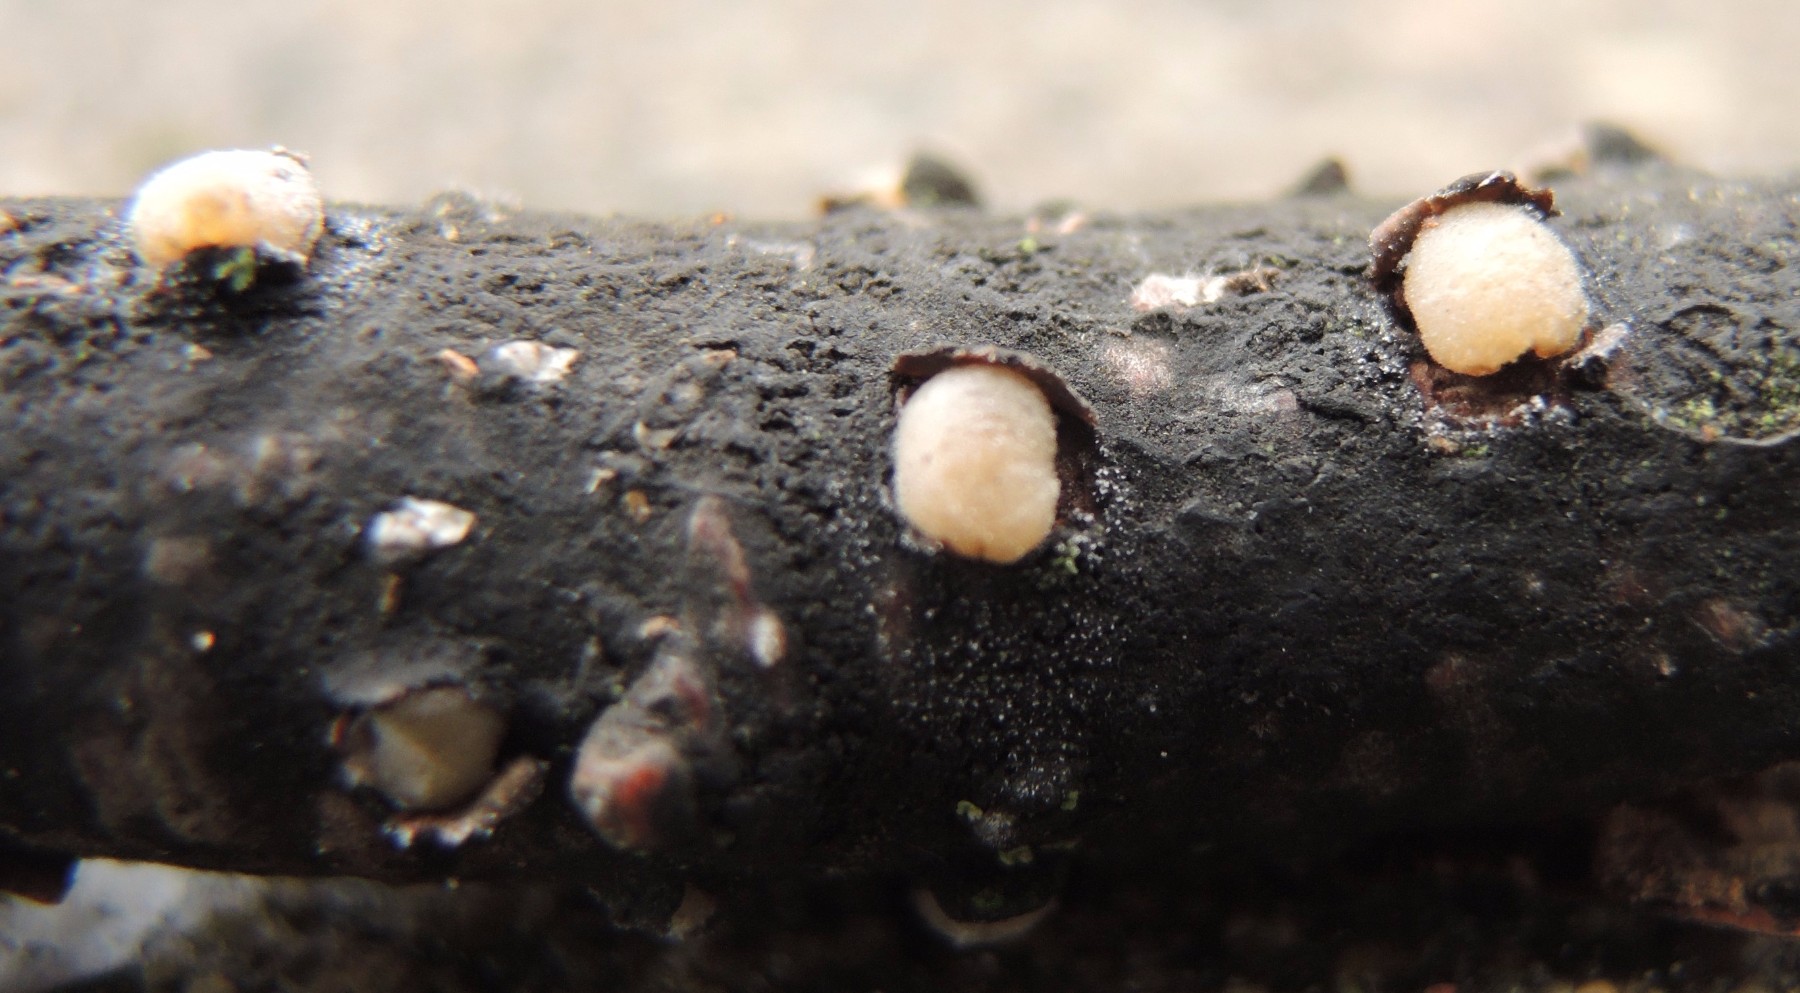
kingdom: Fungi
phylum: Basidiomycota
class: Pucciniomycetes
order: Platygloeales
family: Platygloeaceae
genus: Platygloea
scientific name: Platygloea disciformis
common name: linde-slimklat
